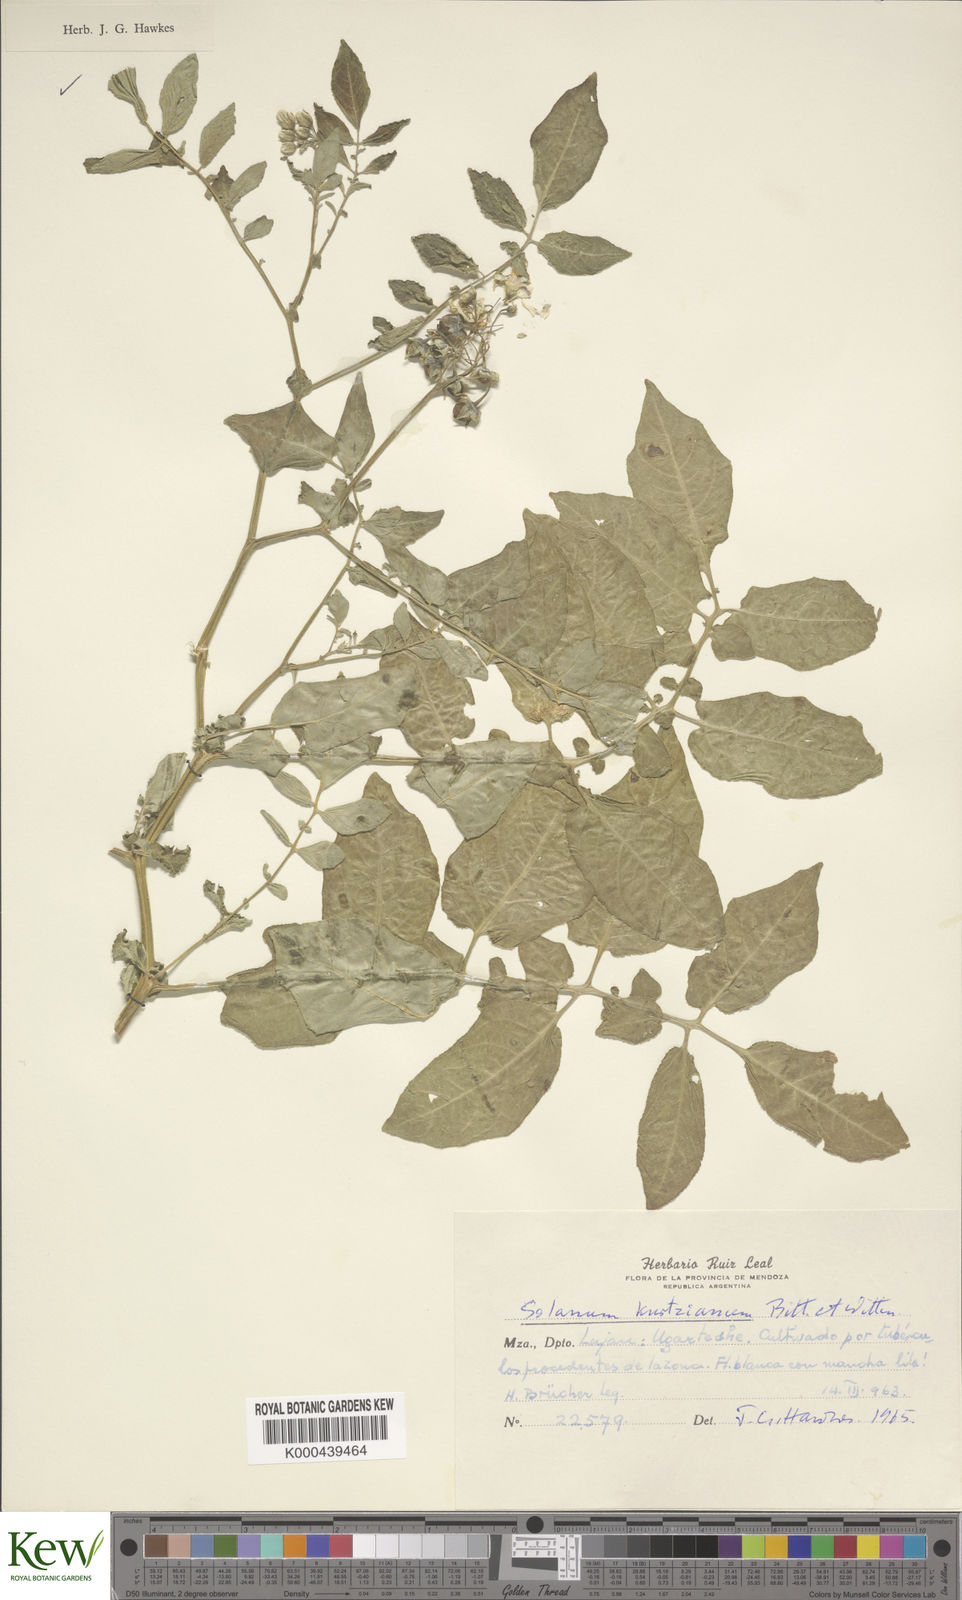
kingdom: Plantae
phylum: Tracheophyta
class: Magnoliopsida
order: Solanales
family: Solanaceae
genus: Solanum
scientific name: Solanum kurtzianum
